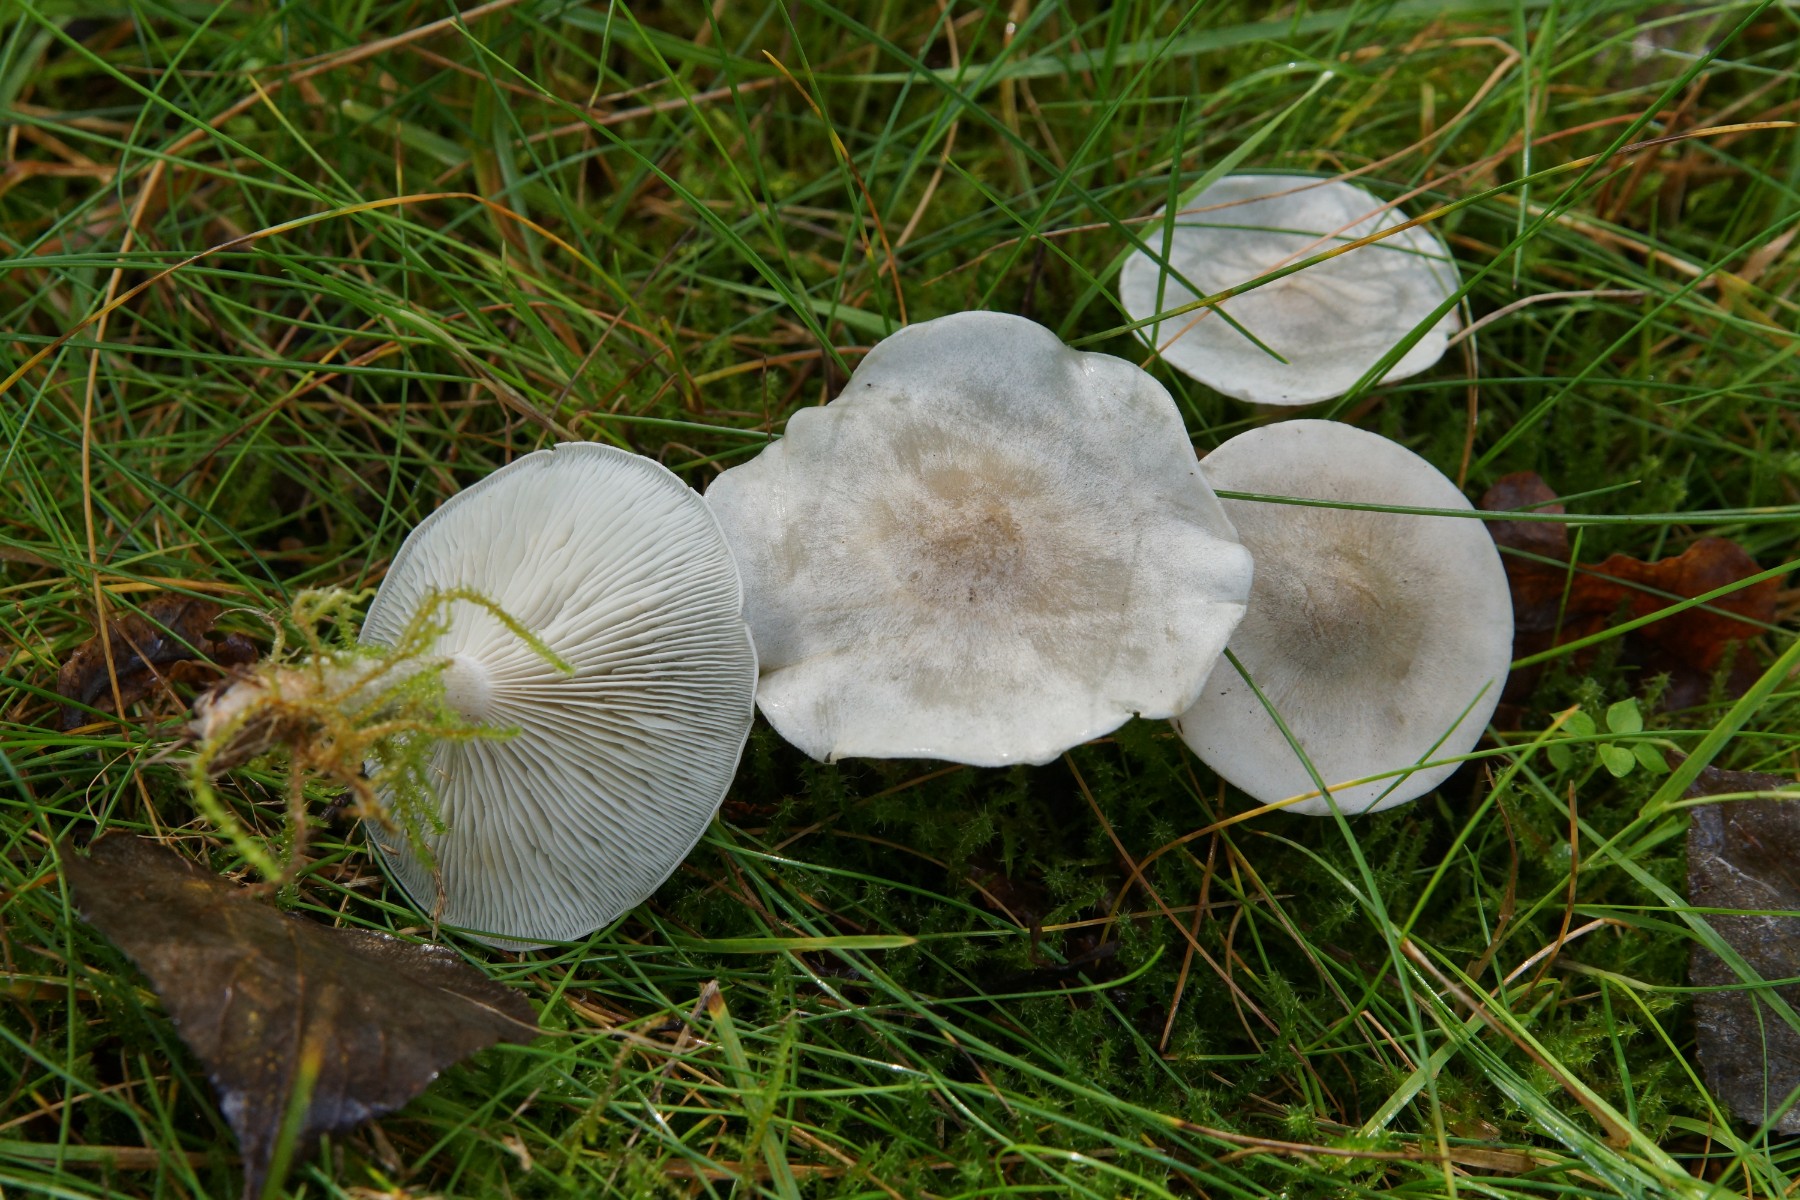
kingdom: Fungi
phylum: Basidiomycota
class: Agaricomycetes
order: Agaricales
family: Tricholomataceae
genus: Clitocybe
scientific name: Clitocybe odora
